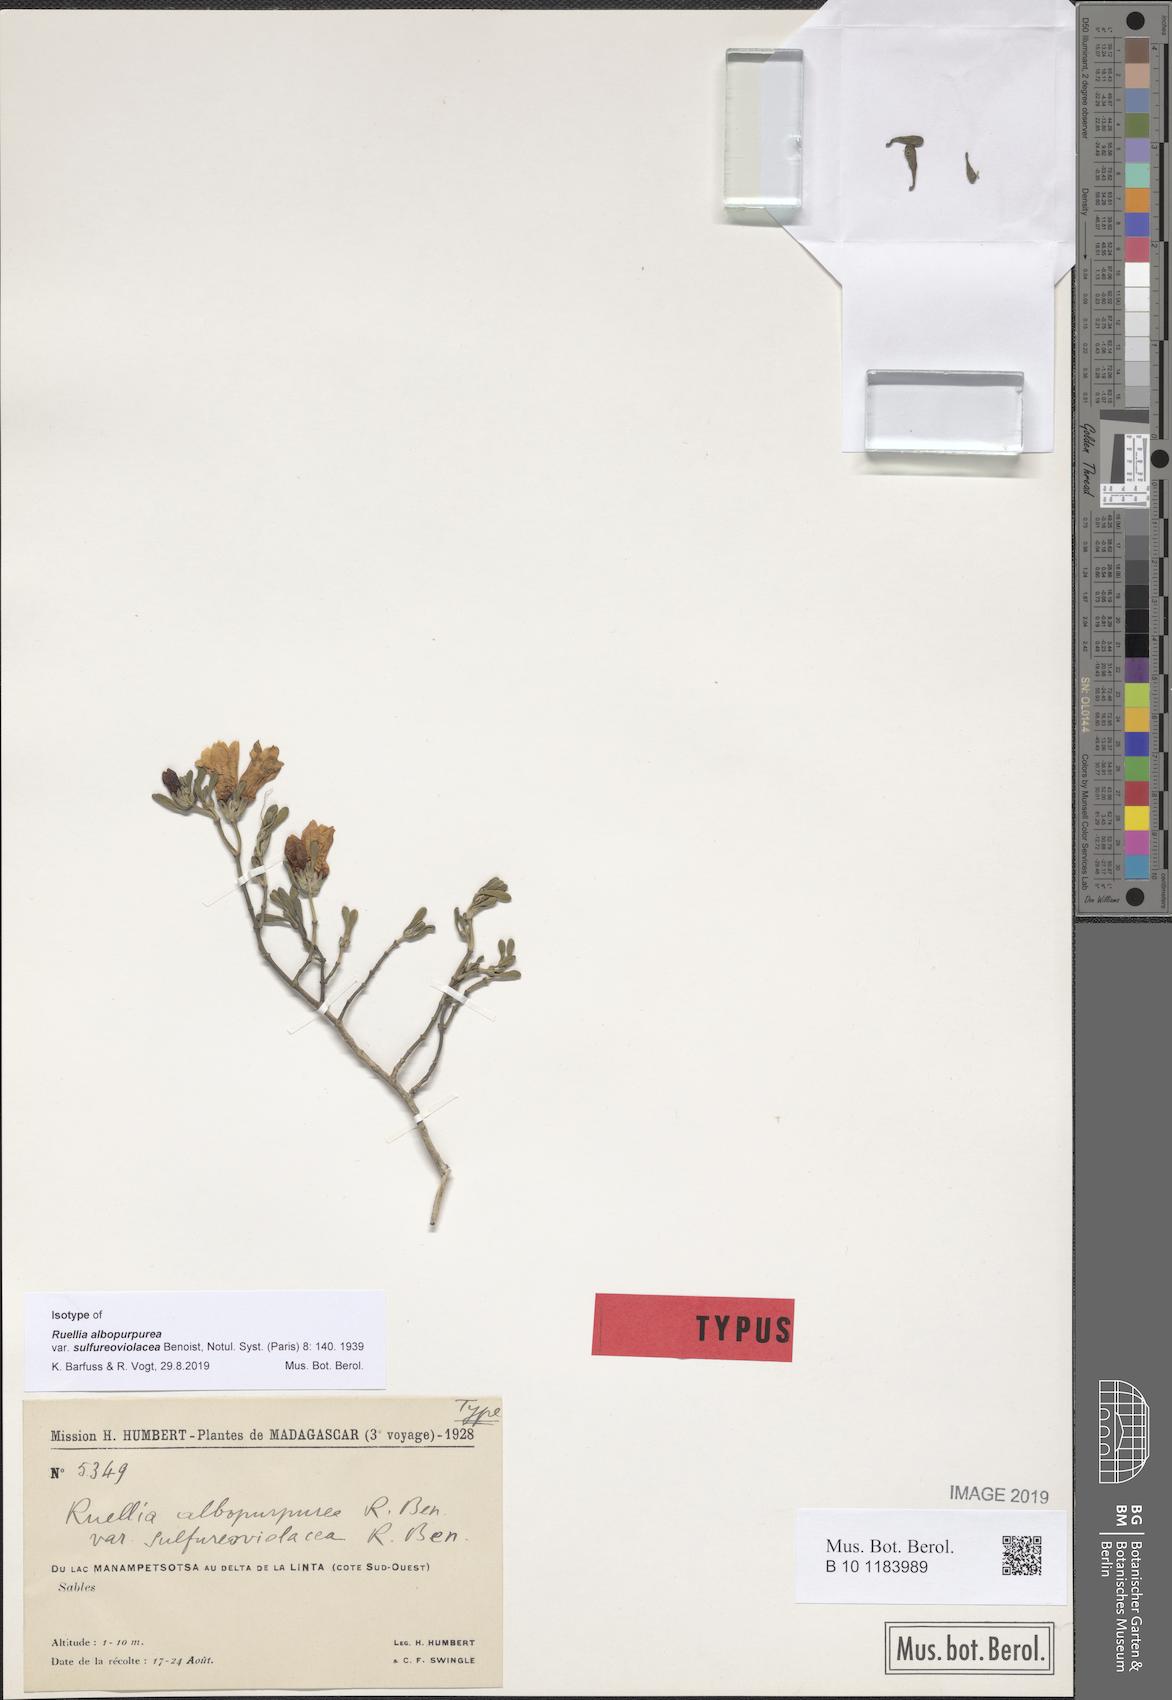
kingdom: Plantae
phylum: Tracheophyta
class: Magnoliopsida
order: Lamiales
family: Acanthaceae
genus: Ruellia
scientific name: Ruellia albopurpurea
